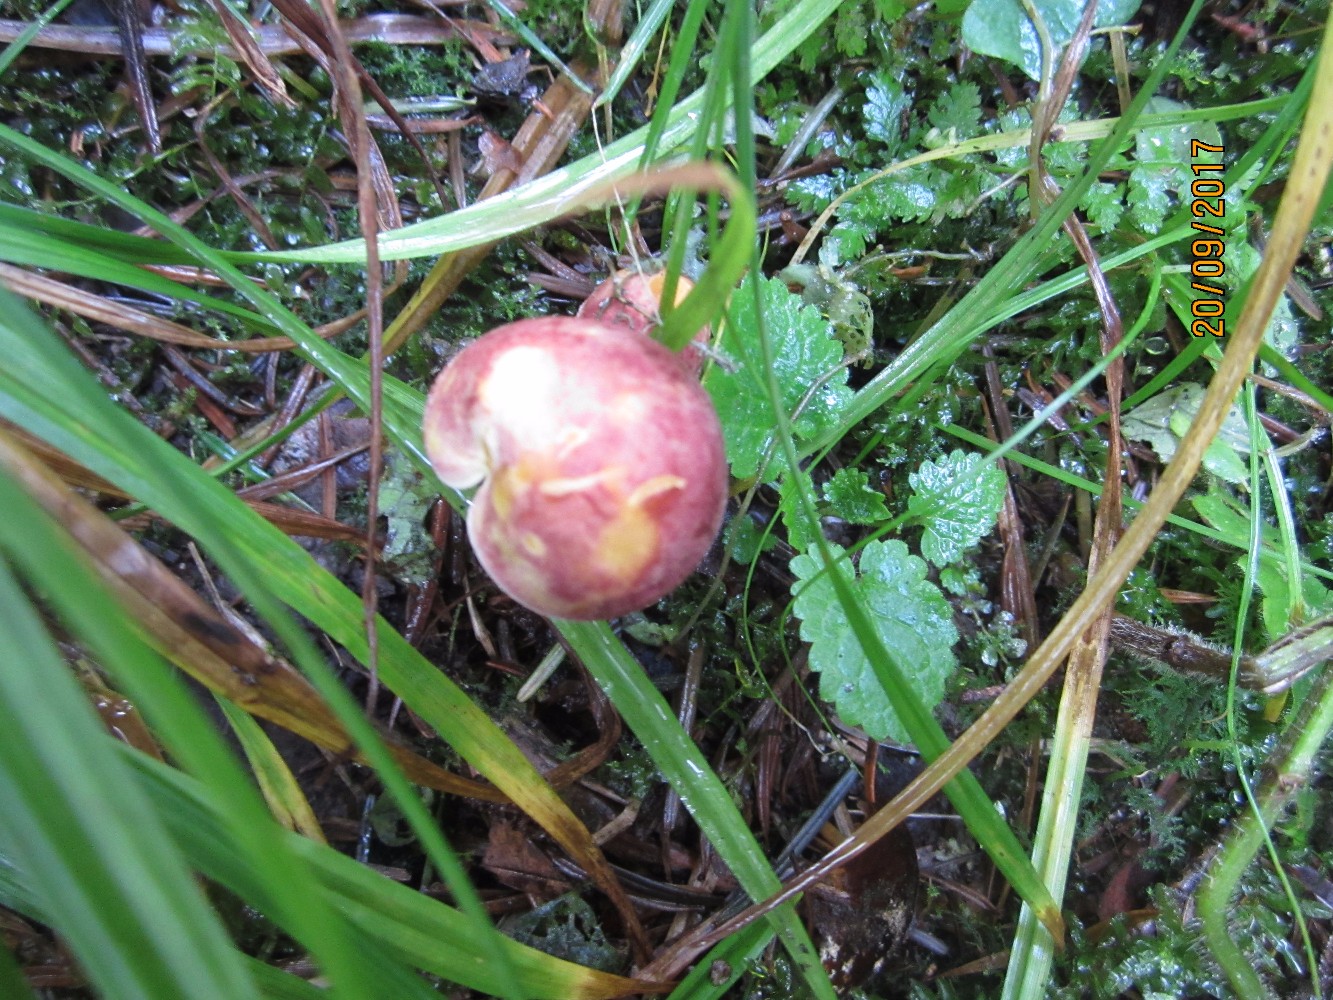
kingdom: Fungi
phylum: Basidiomycota
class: Agaricomycetes
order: Agaricales
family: Tricholomataceae
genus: Tricholomopsis
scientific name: Tricholomopsis rutilans
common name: purpur-væbnerhat
